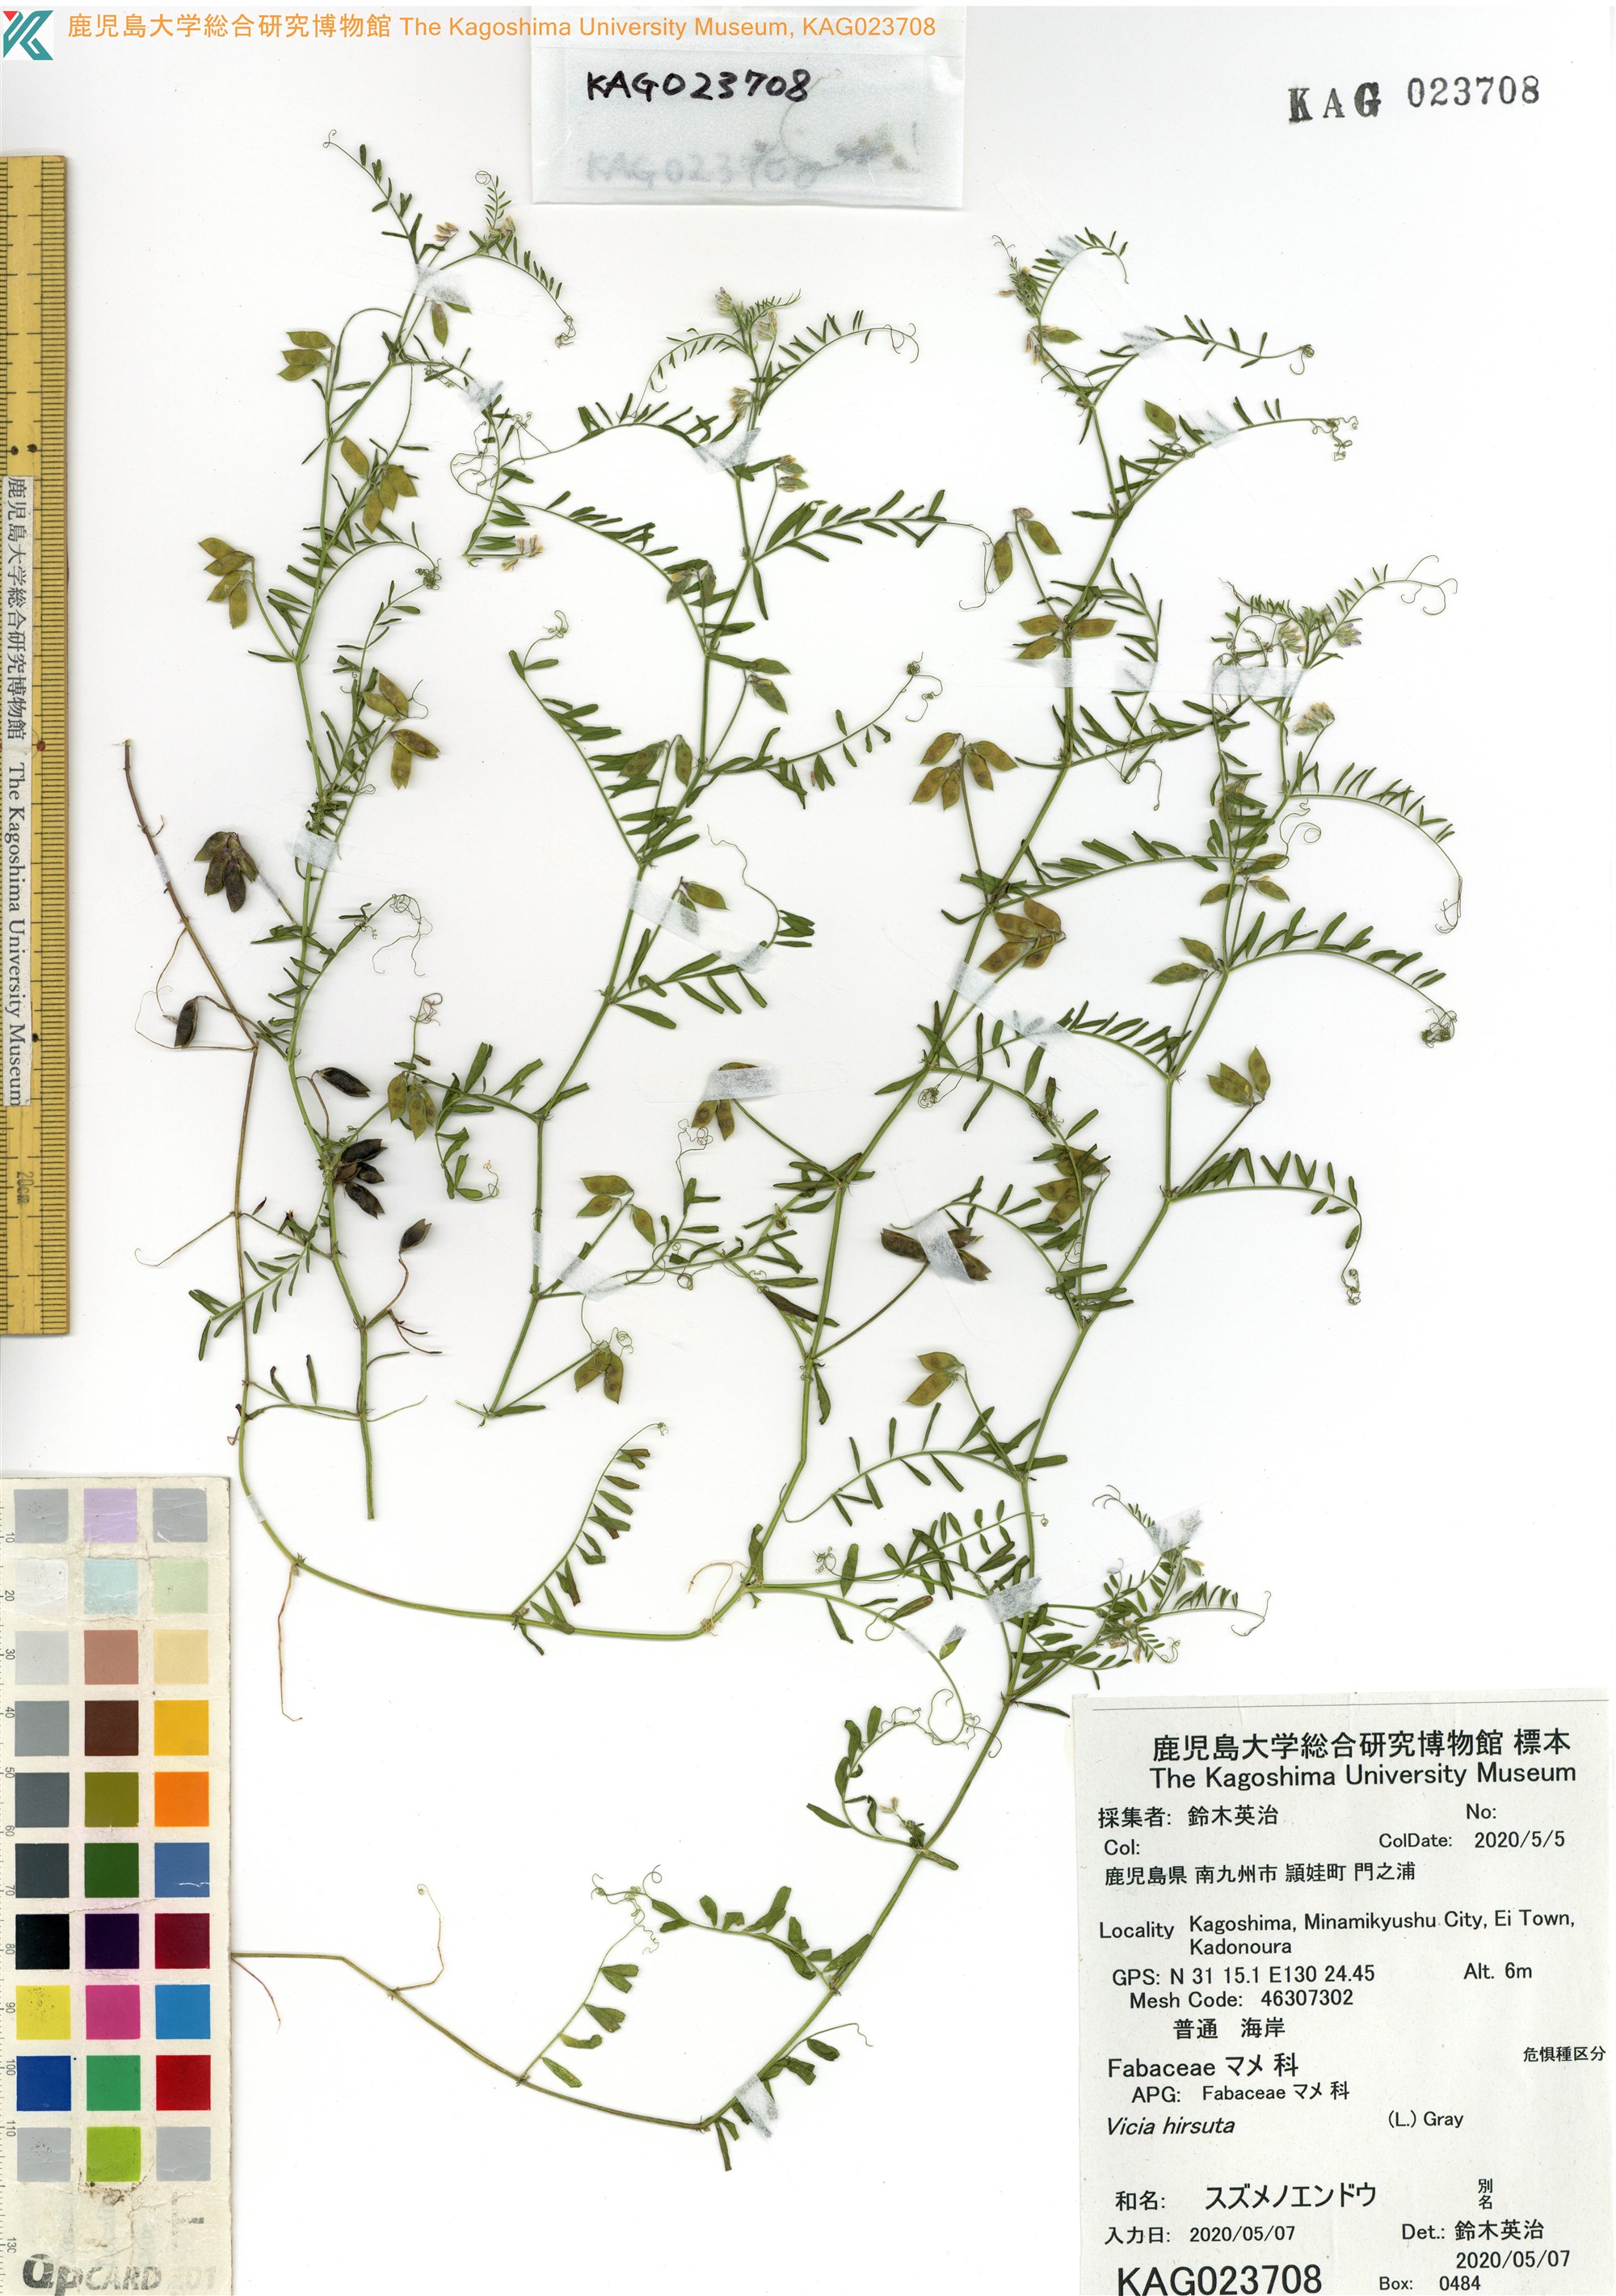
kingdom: Plantae
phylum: Tracheophyta
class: Magnoliopsida
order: Fabales
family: Fabaceae
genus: Vicia
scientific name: Vicia hirsuta
